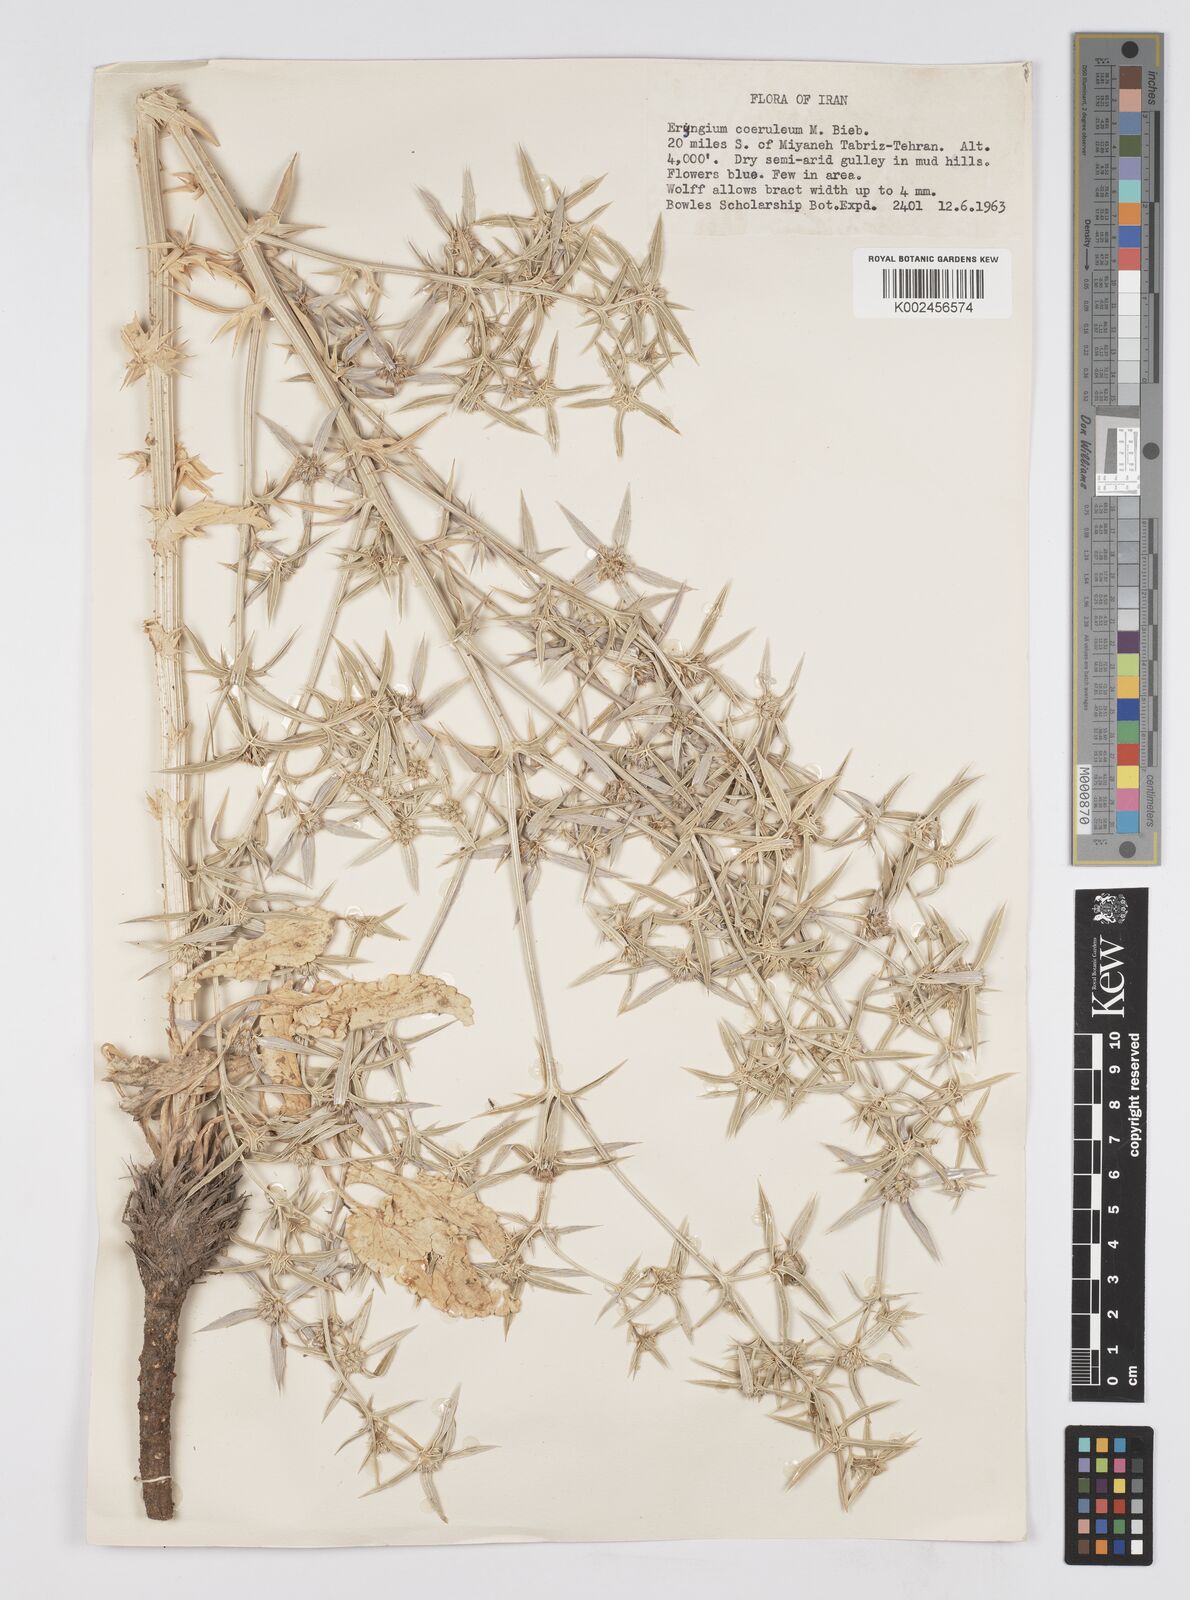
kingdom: Plantae
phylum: Tracheophyta
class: Magnoliopsida
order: Apiales
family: Apiaceae
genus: Eryngium
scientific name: Eryngium caeruleum
